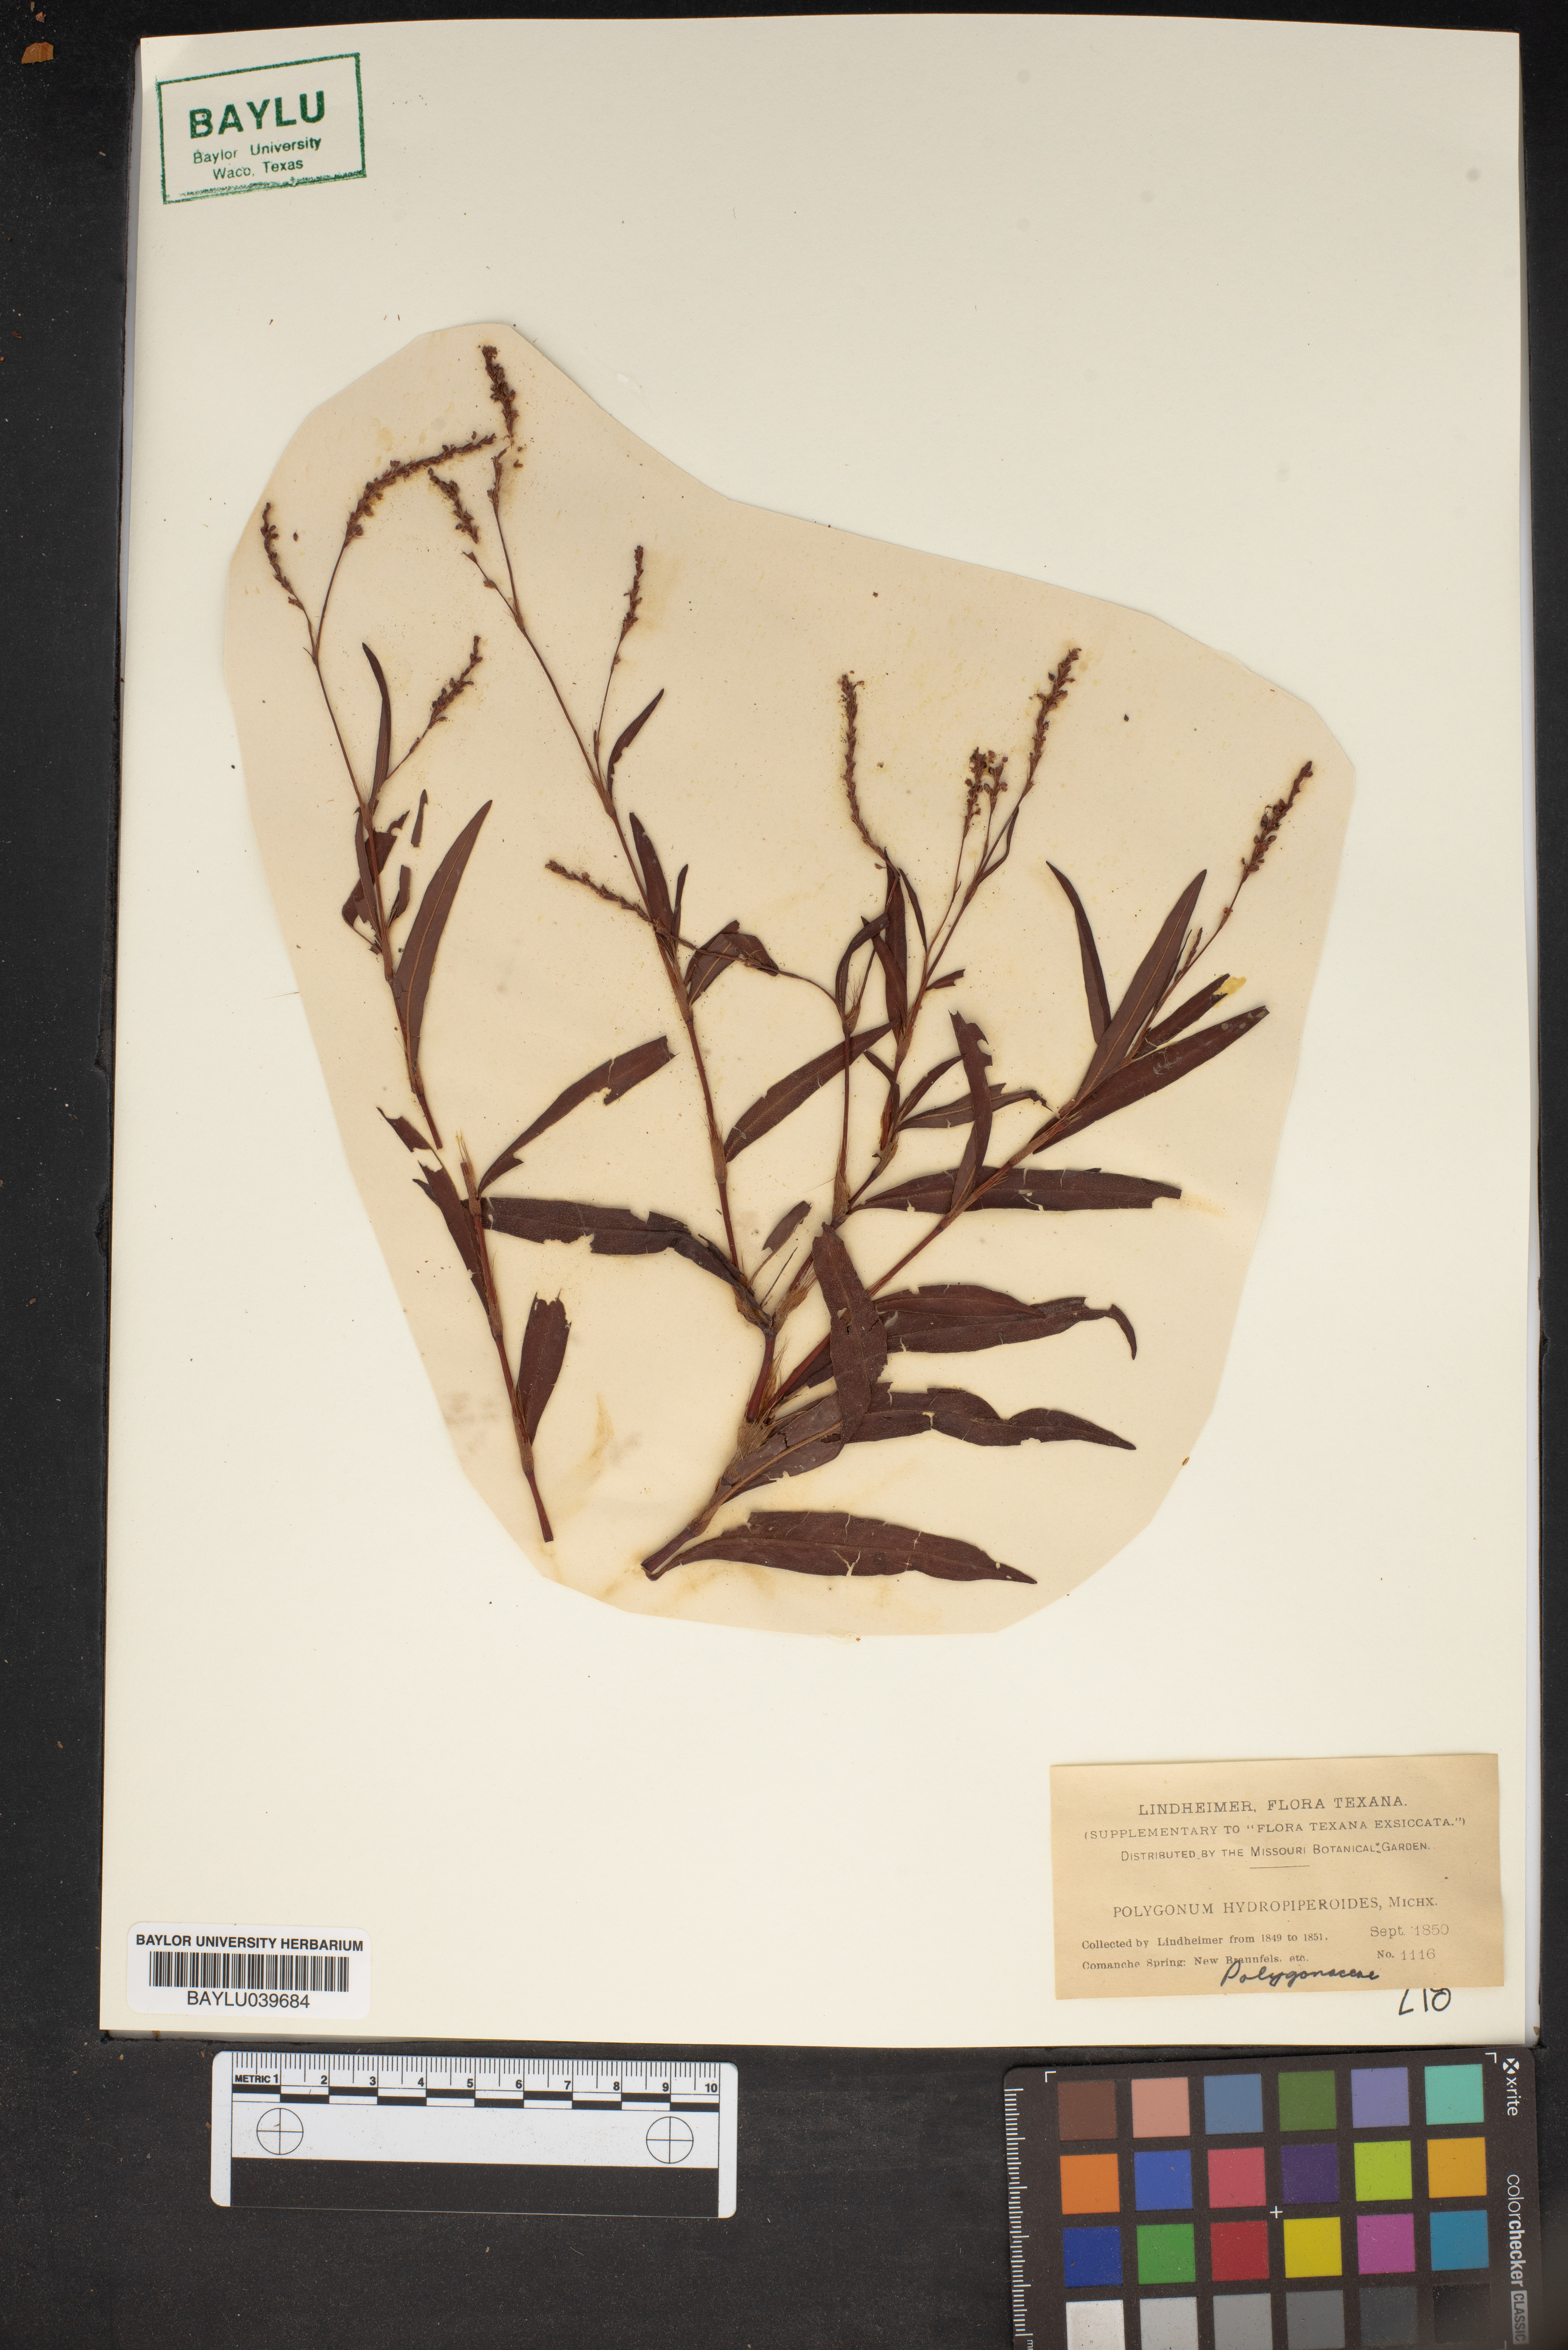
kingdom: Plantae
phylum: Tracheophyta
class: Magnoliopsida
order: Caryophyllales
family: Polygonaceae
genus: Persicaria
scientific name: Persicaria hydropiperoides
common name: Swamp smartweed
